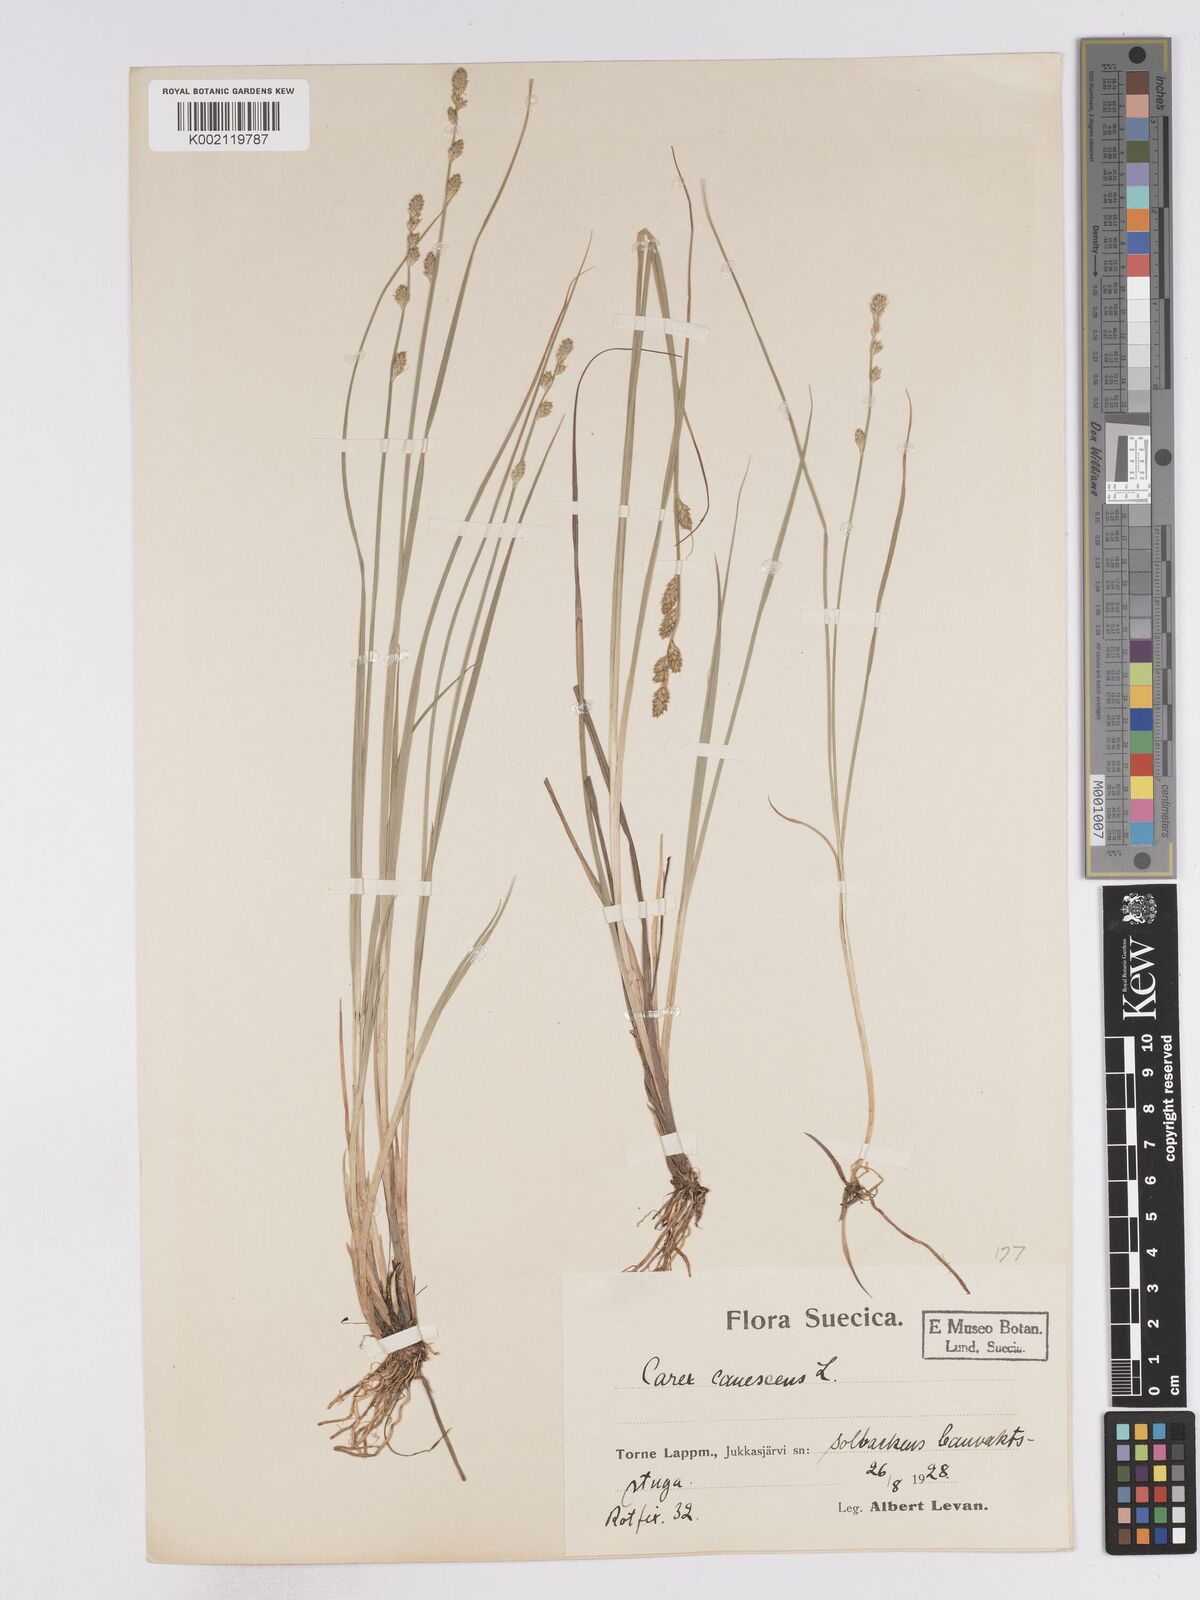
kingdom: Plantae
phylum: Tracheophyta
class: Liliopsida
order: Poales
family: Cyperaceae
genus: Carex
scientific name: Carex curta
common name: White sedge
